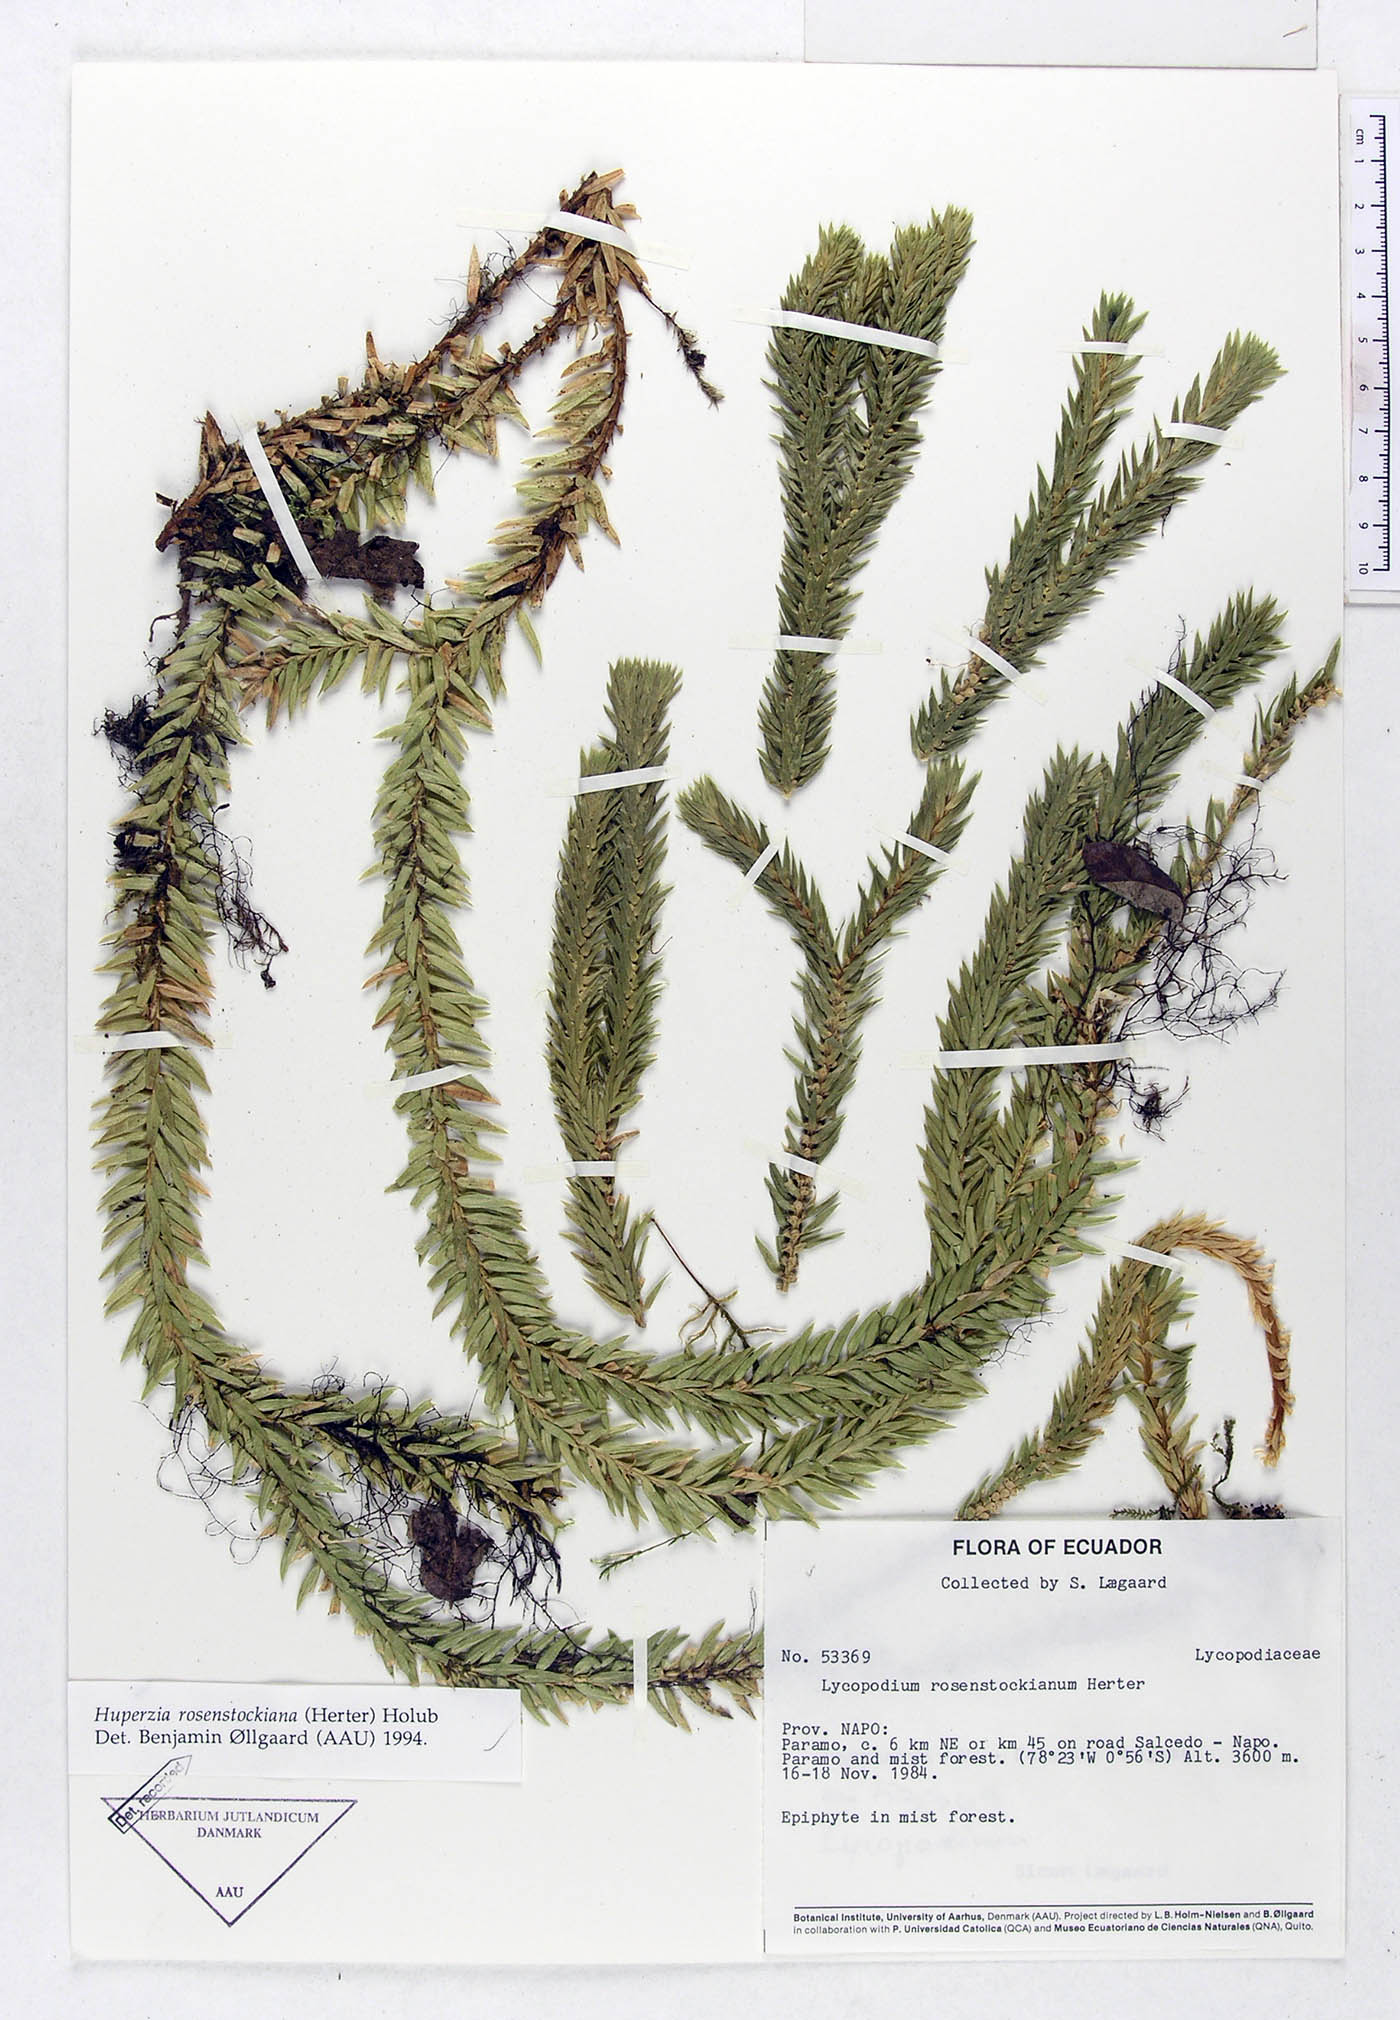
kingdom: Plantae
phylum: Tracheophyta
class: Lycopodiopsida
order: Lycopodiales
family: Lycopodiaceae
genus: Phlegmariurus
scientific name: Phlegmariurus rosenstockianus
